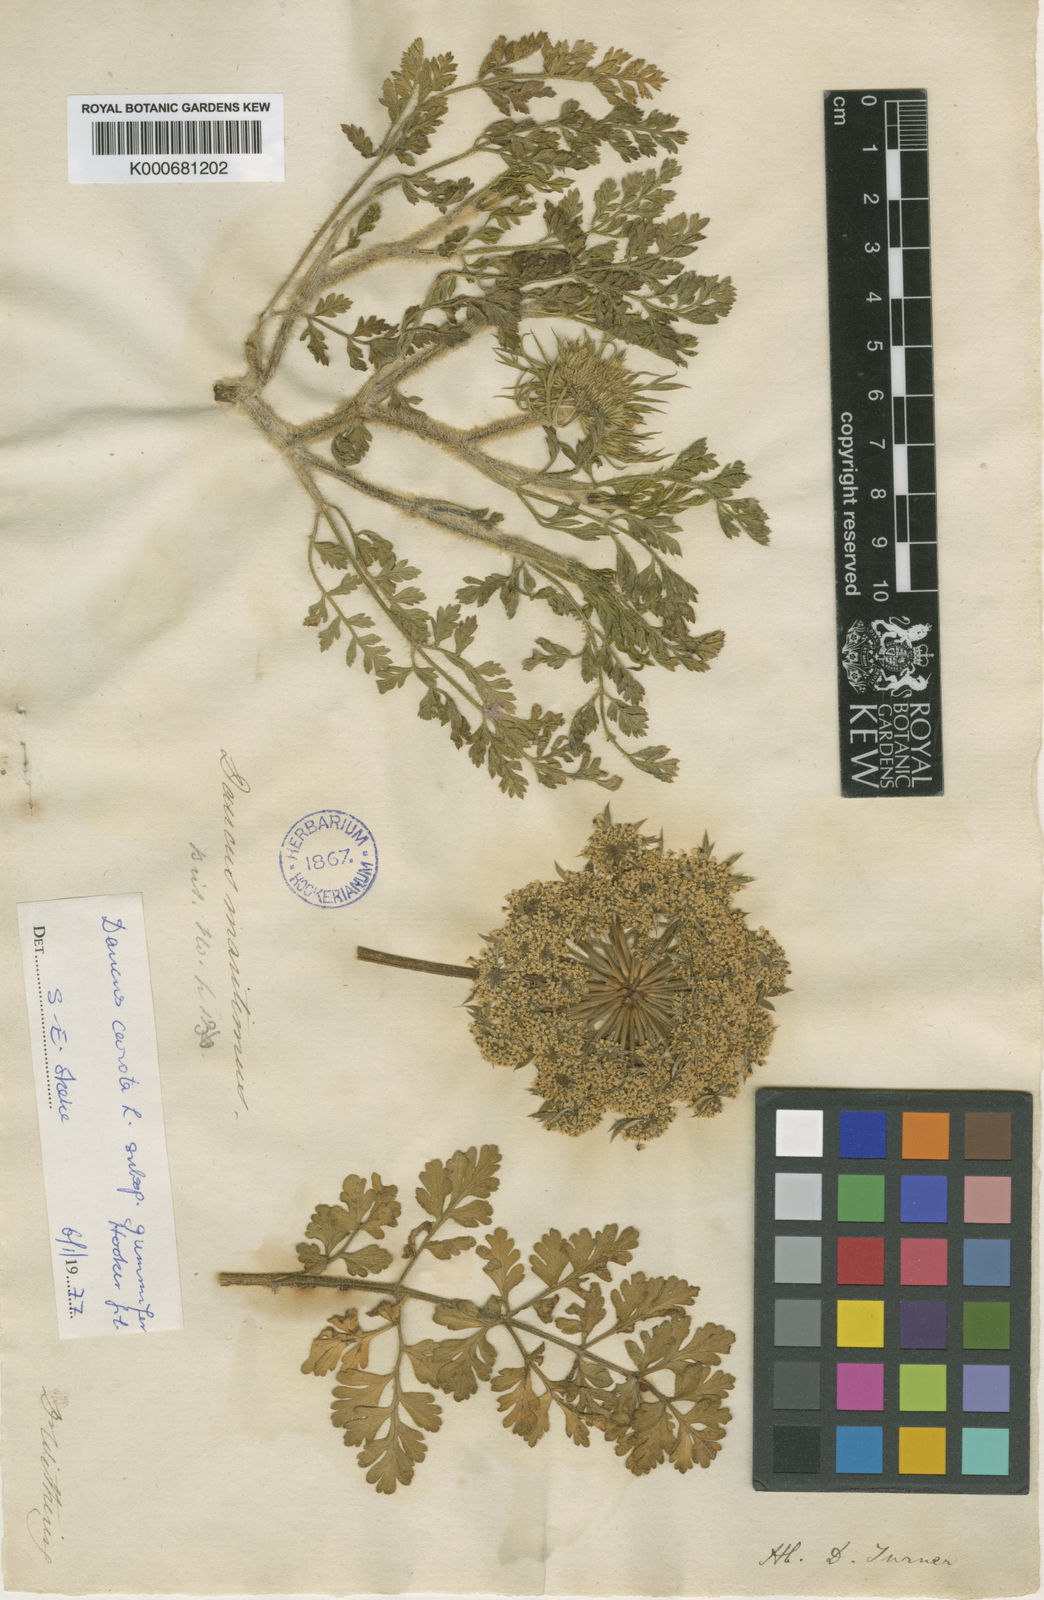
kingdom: Plantae
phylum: Tracheophyta
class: Magnoliopsida
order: Apiales
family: Apiaceae
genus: Daucus
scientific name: Daucus carota
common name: Wild carrot
